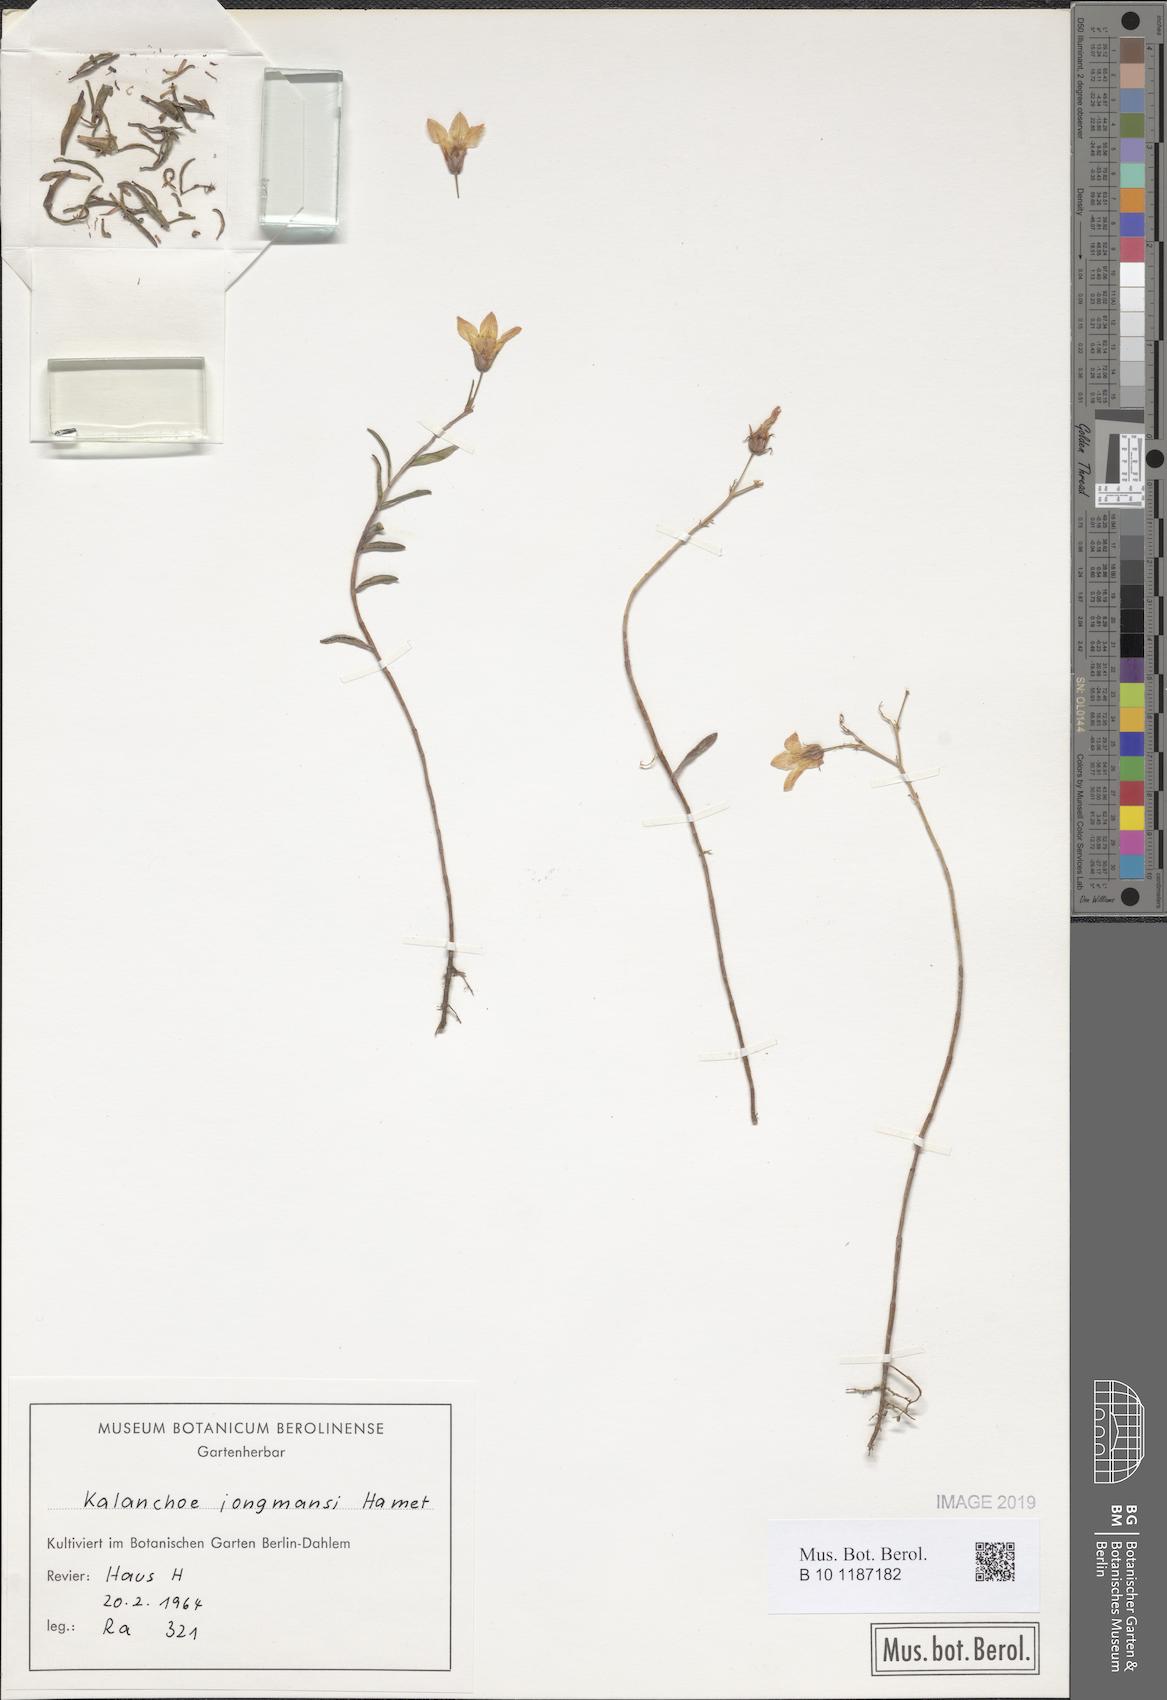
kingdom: Plantae
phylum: Tracheophyta
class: Magnoliopsida
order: Saxifragales
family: Crassulaceae
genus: Kalanchoe
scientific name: Kalanchoe jongmansii
